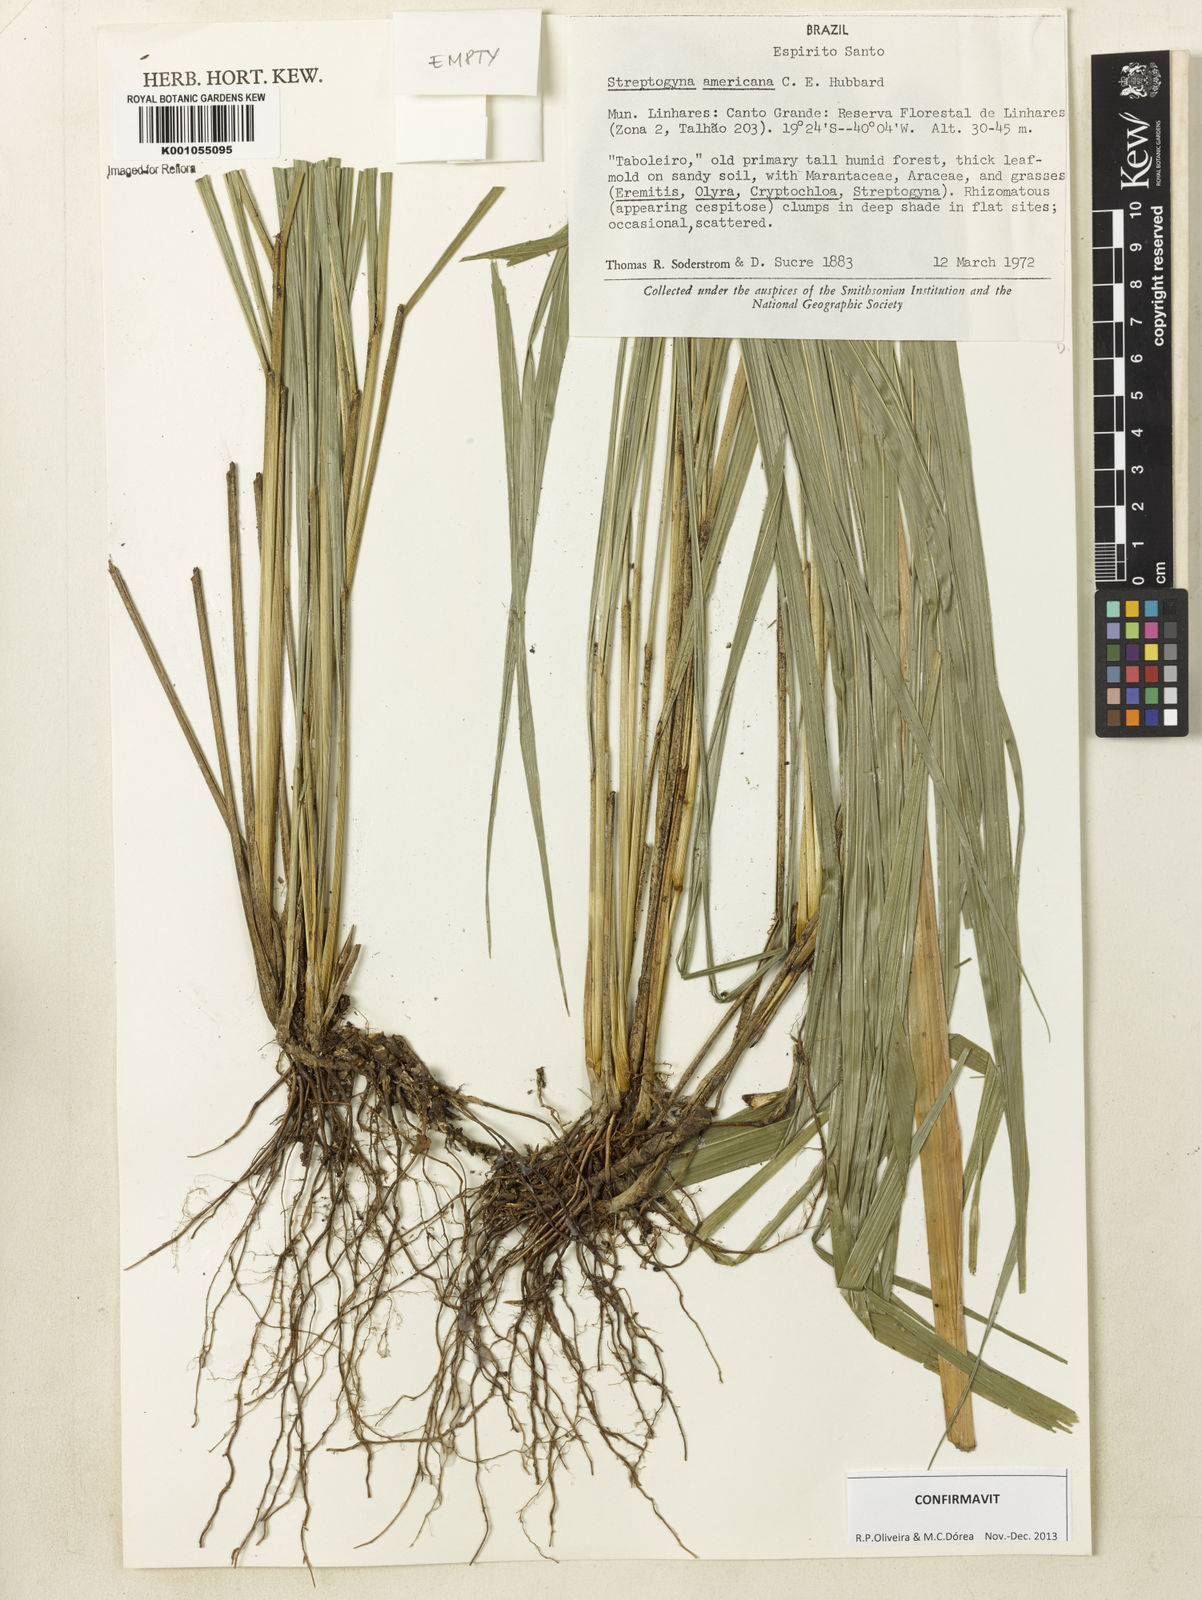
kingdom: Plantae
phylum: Tracheophyta
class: Liliopsida
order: Poales
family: Poaceae
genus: Streptogyna
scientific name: Streptogyna americana
